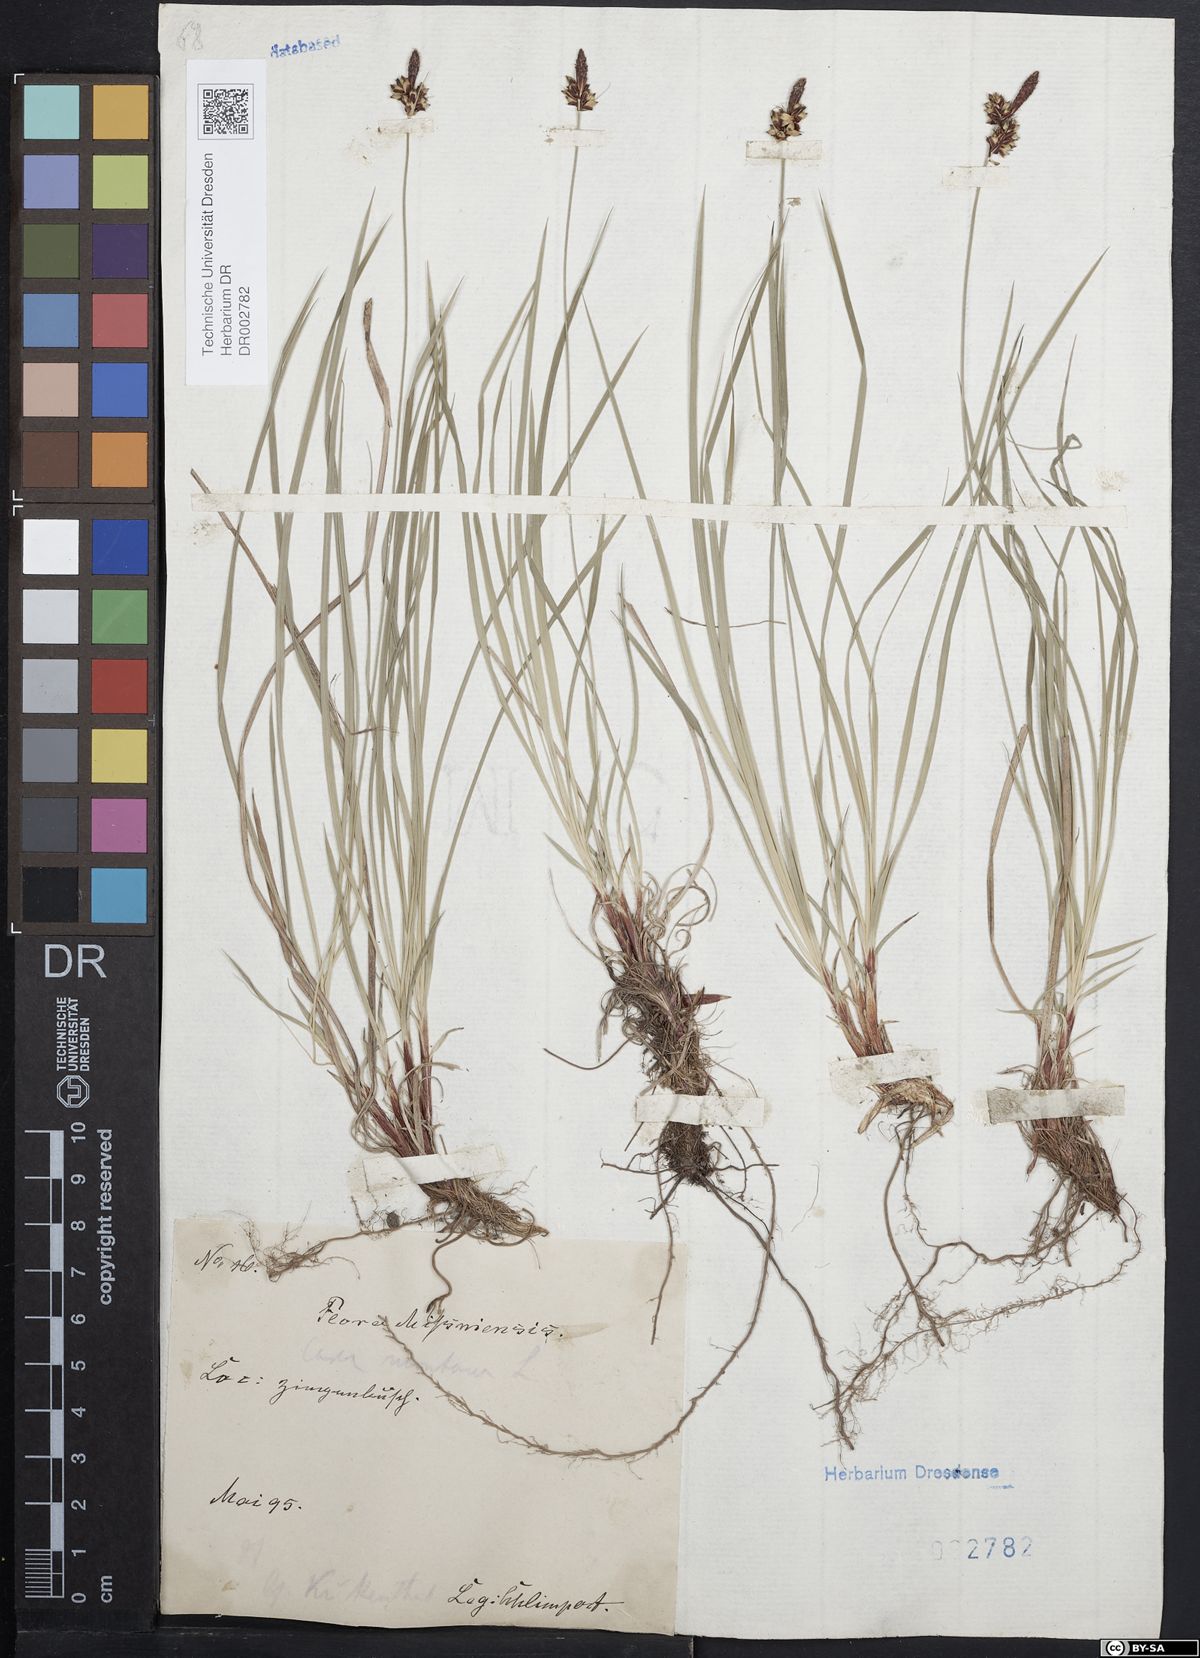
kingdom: Plantae
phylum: Tracheophyta
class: Liliopsida
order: Poales
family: Cyperaceae
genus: Carex
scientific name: Carex montana
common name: Soft-leaved sedge
